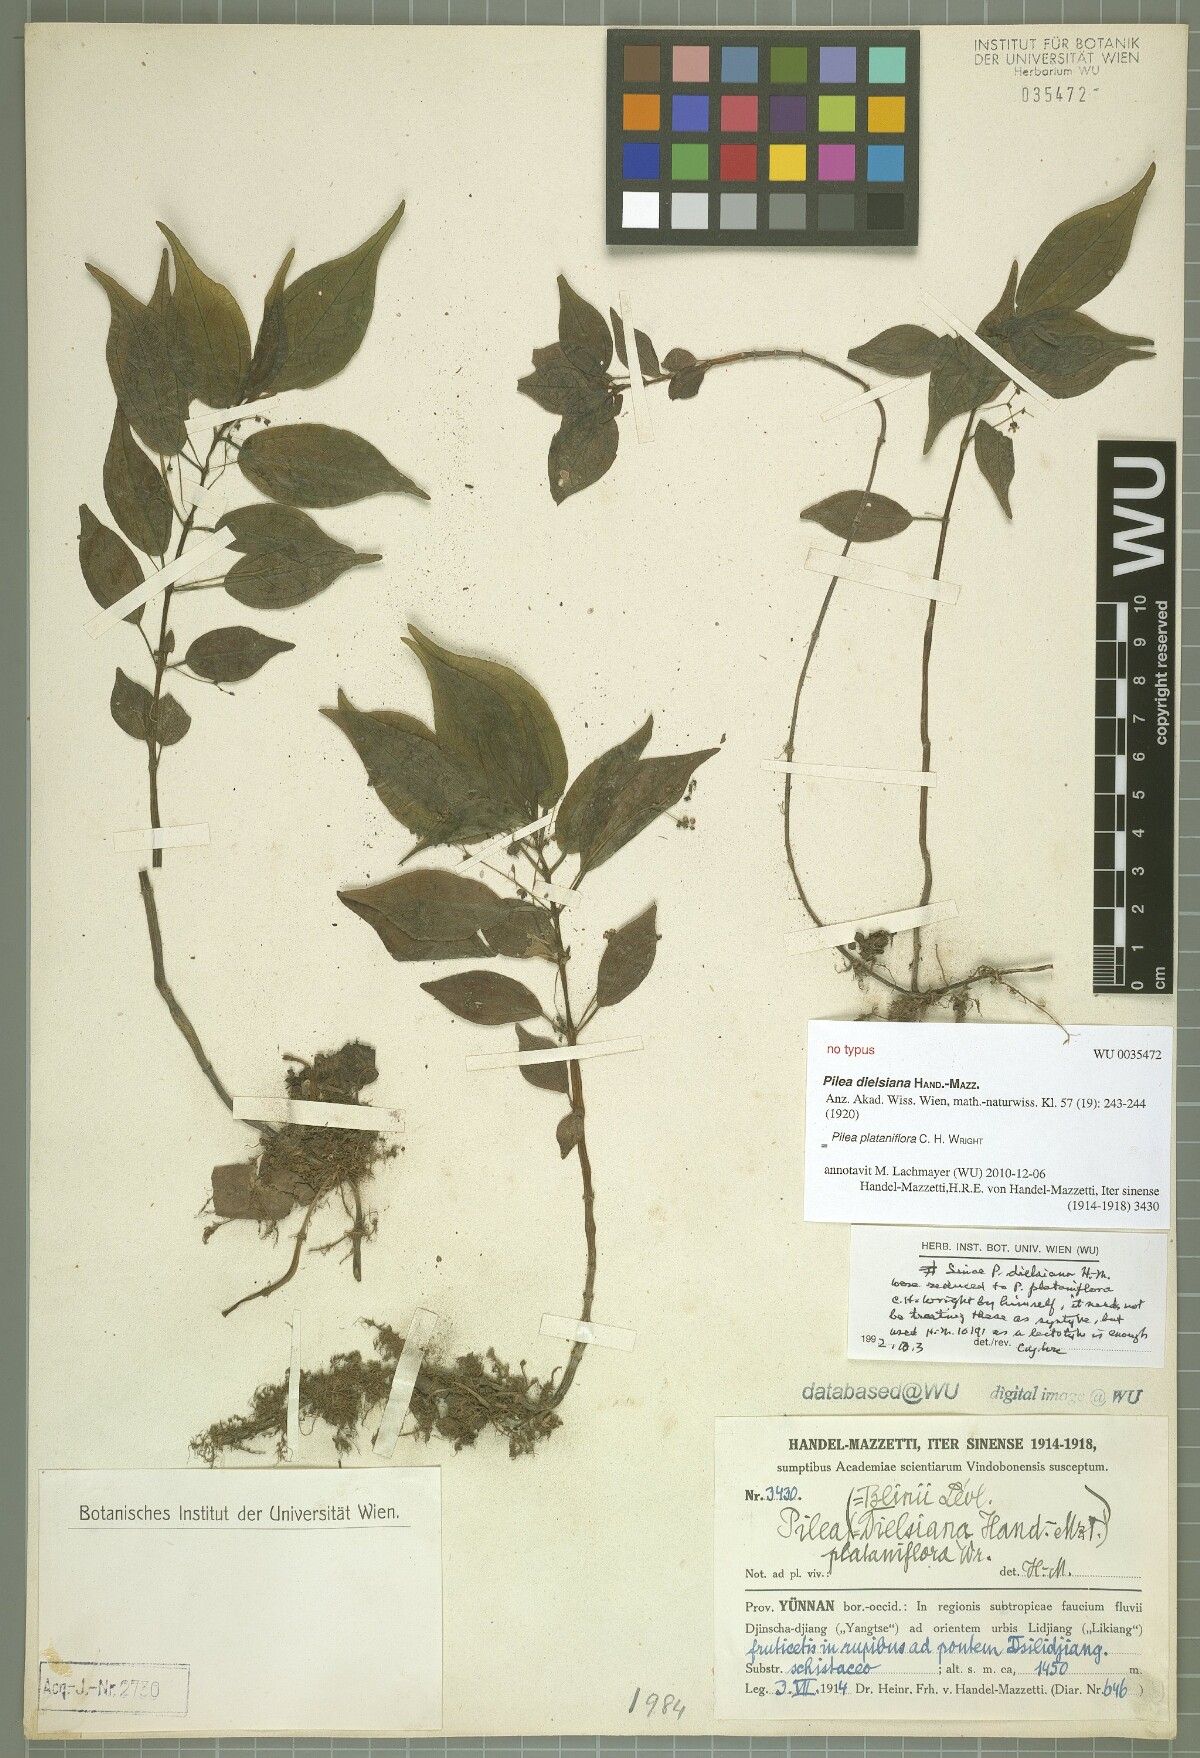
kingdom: Plantae
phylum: Tracheophyta
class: Magnoliopsida
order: Rosales
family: Urticaceae
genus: Pilea
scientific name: Pilea plataniflora
